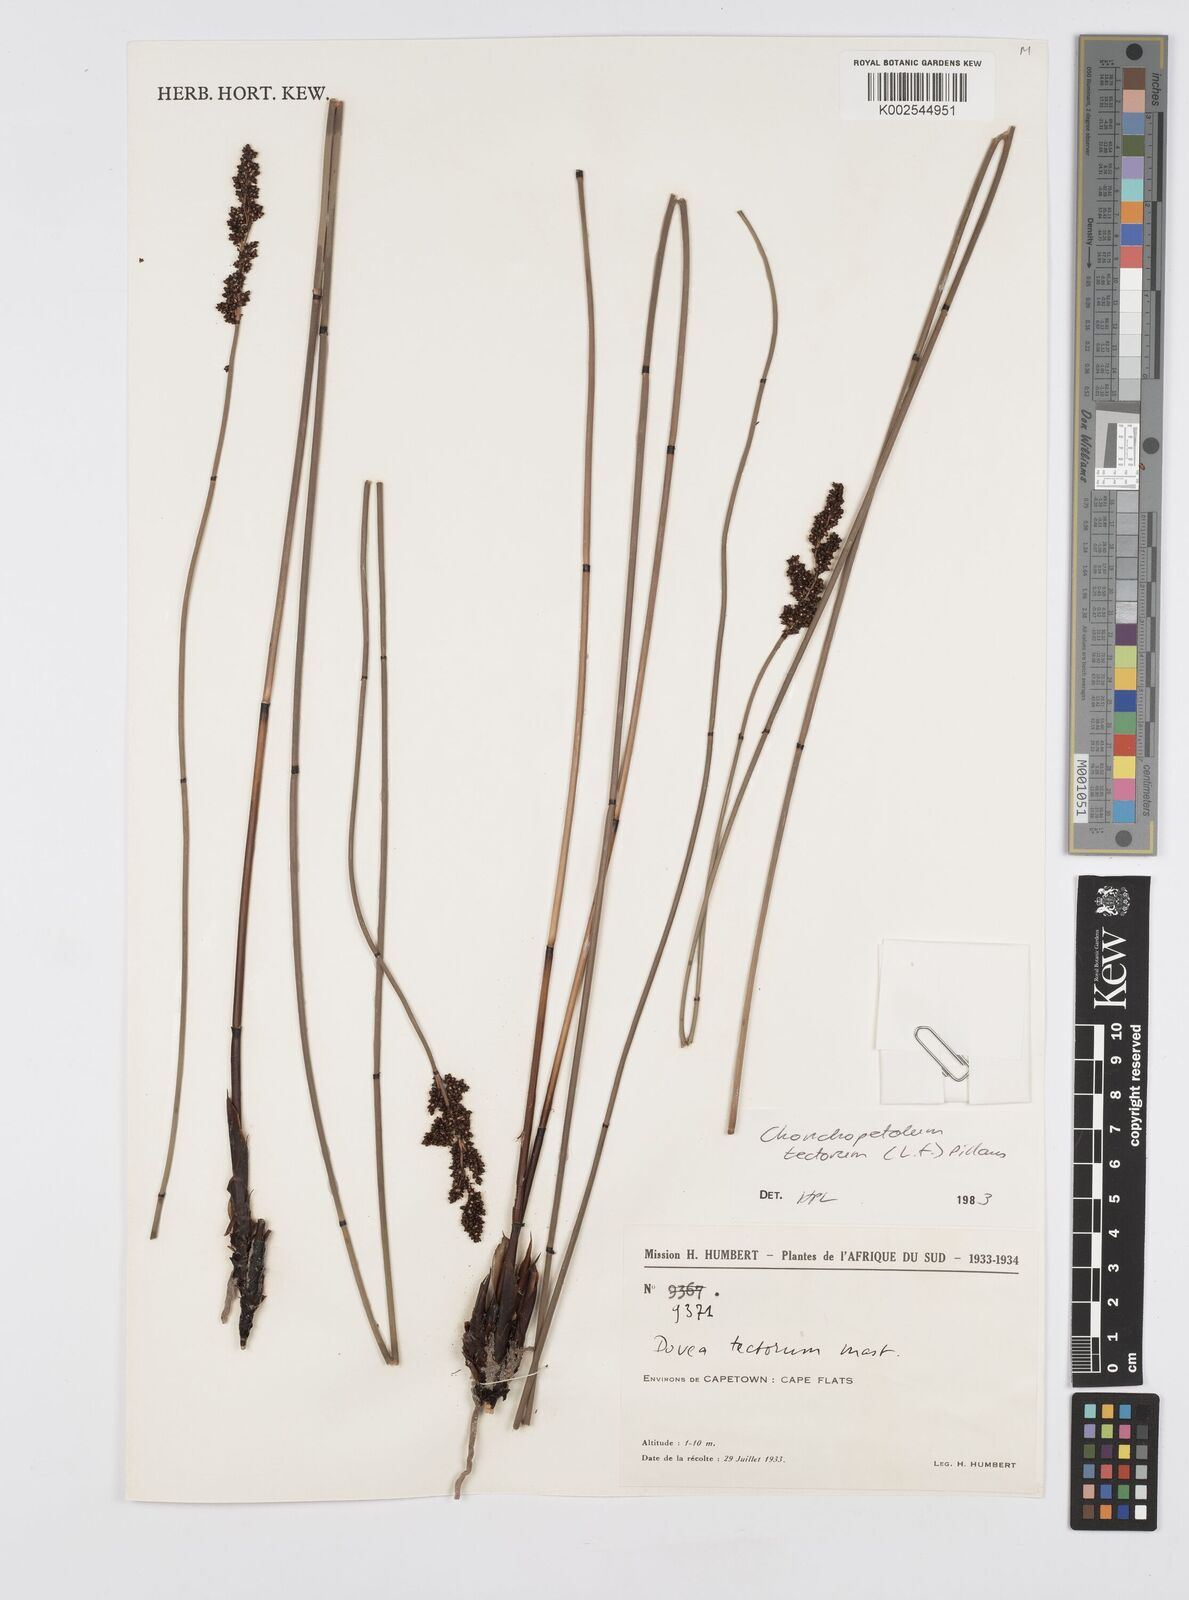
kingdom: Plantae
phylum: Tracheophyta
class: Liliopsida
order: Poales
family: Restionaceae
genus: Elegia
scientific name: Elegia tectorum
